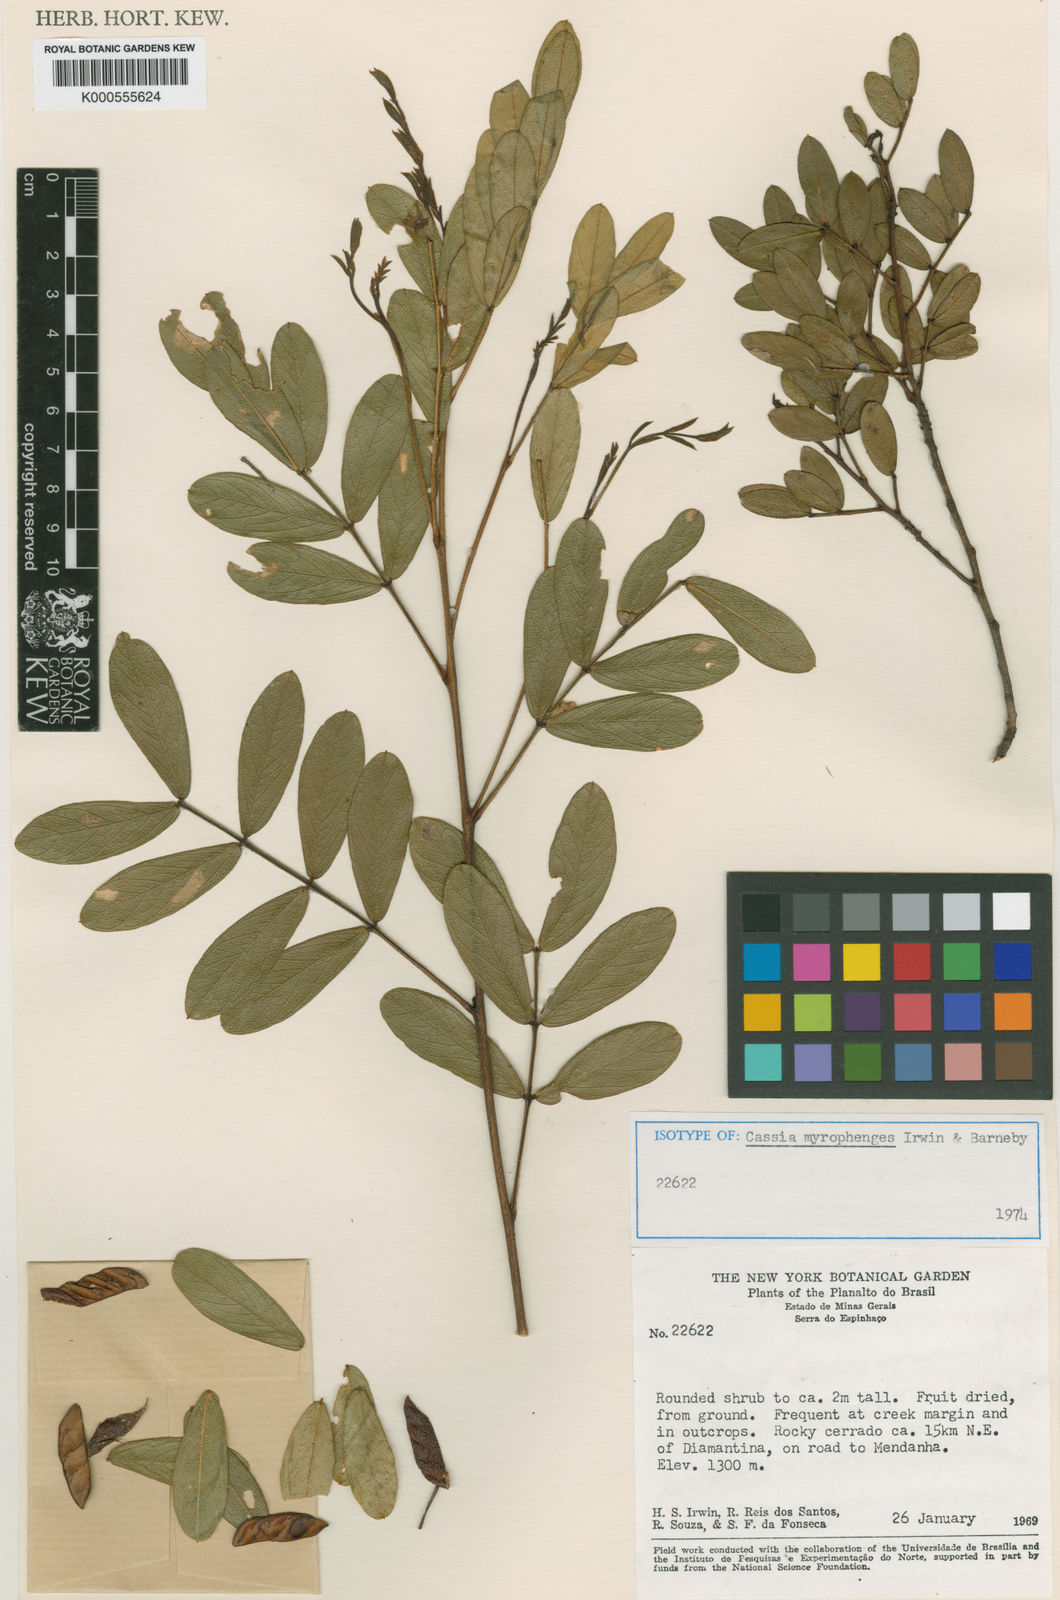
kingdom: Plantae
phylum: Tracheophyta
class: Magnoliopsida
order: Fabales
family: Fabaceae
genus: Chamaecrista
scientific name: Chamaecrista myrophenges
